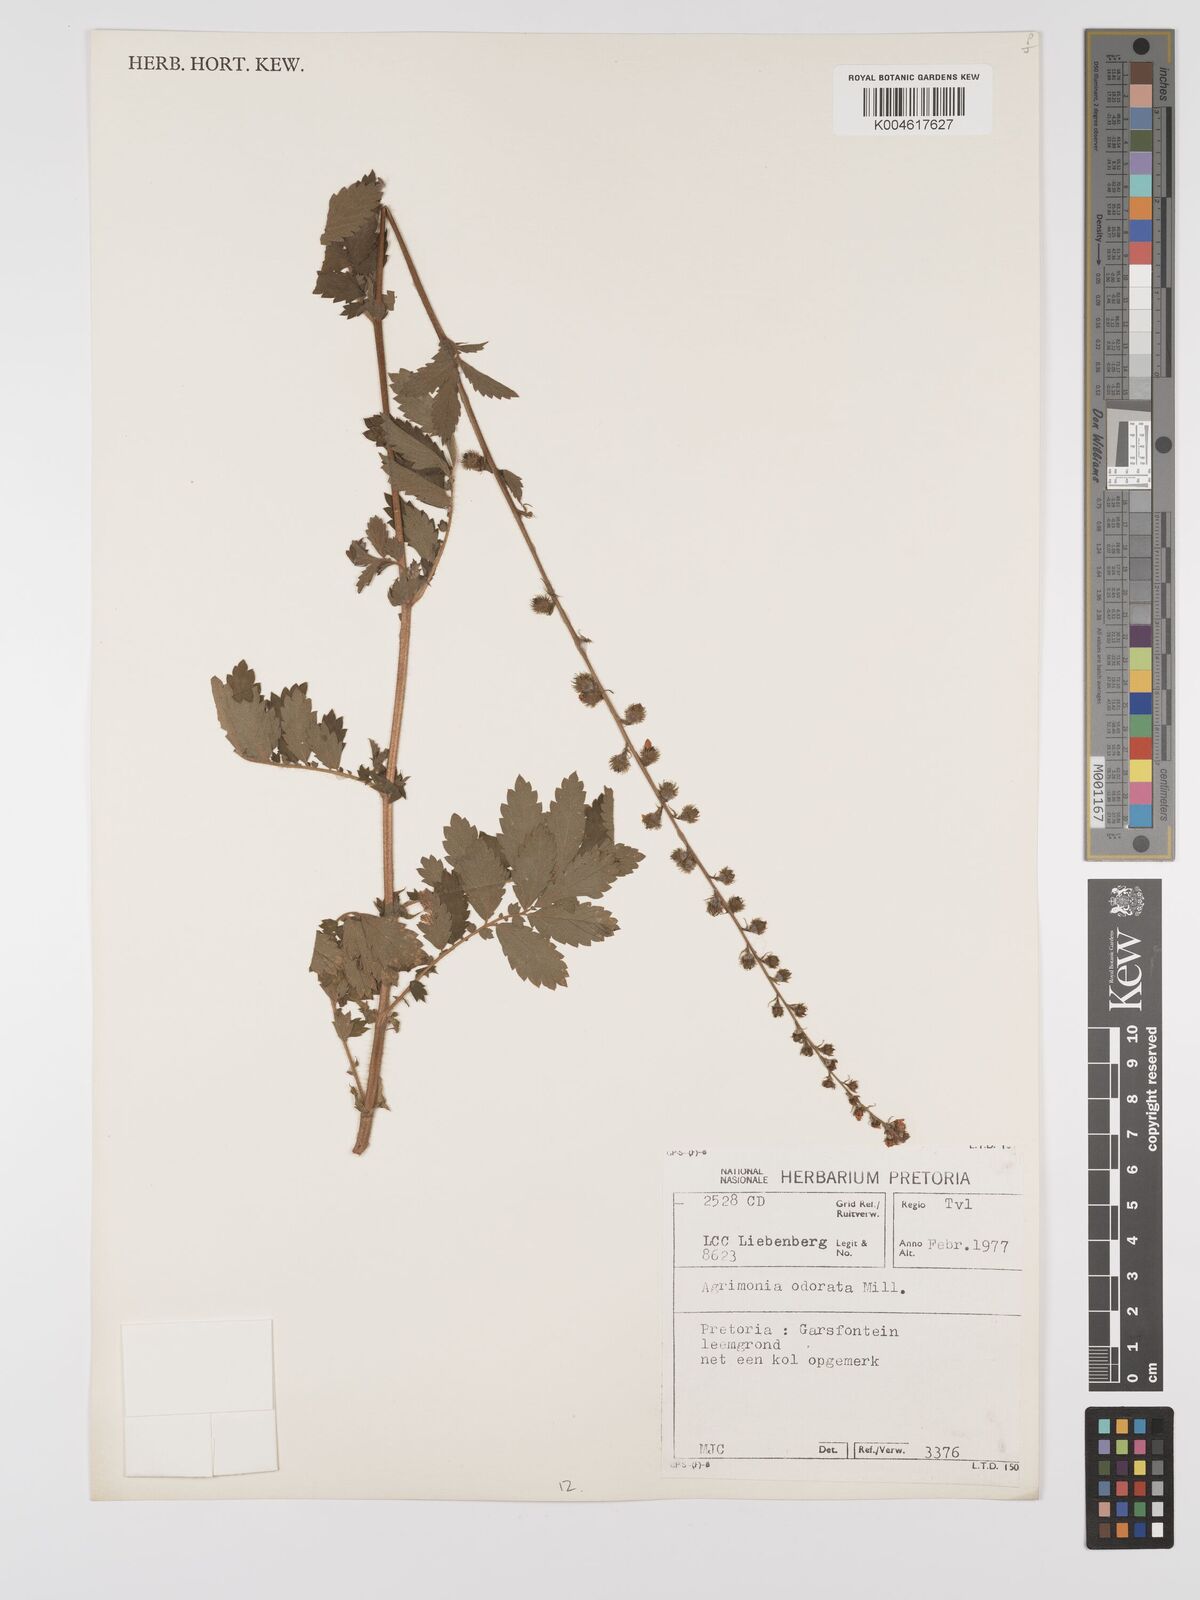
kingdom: Plantae
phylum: Tracheophyta
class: Magnoliopsida
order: Rosales
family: Rosaceae
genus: Agrimonia
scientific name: Agrimonia repens
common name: Creeping agrimony
